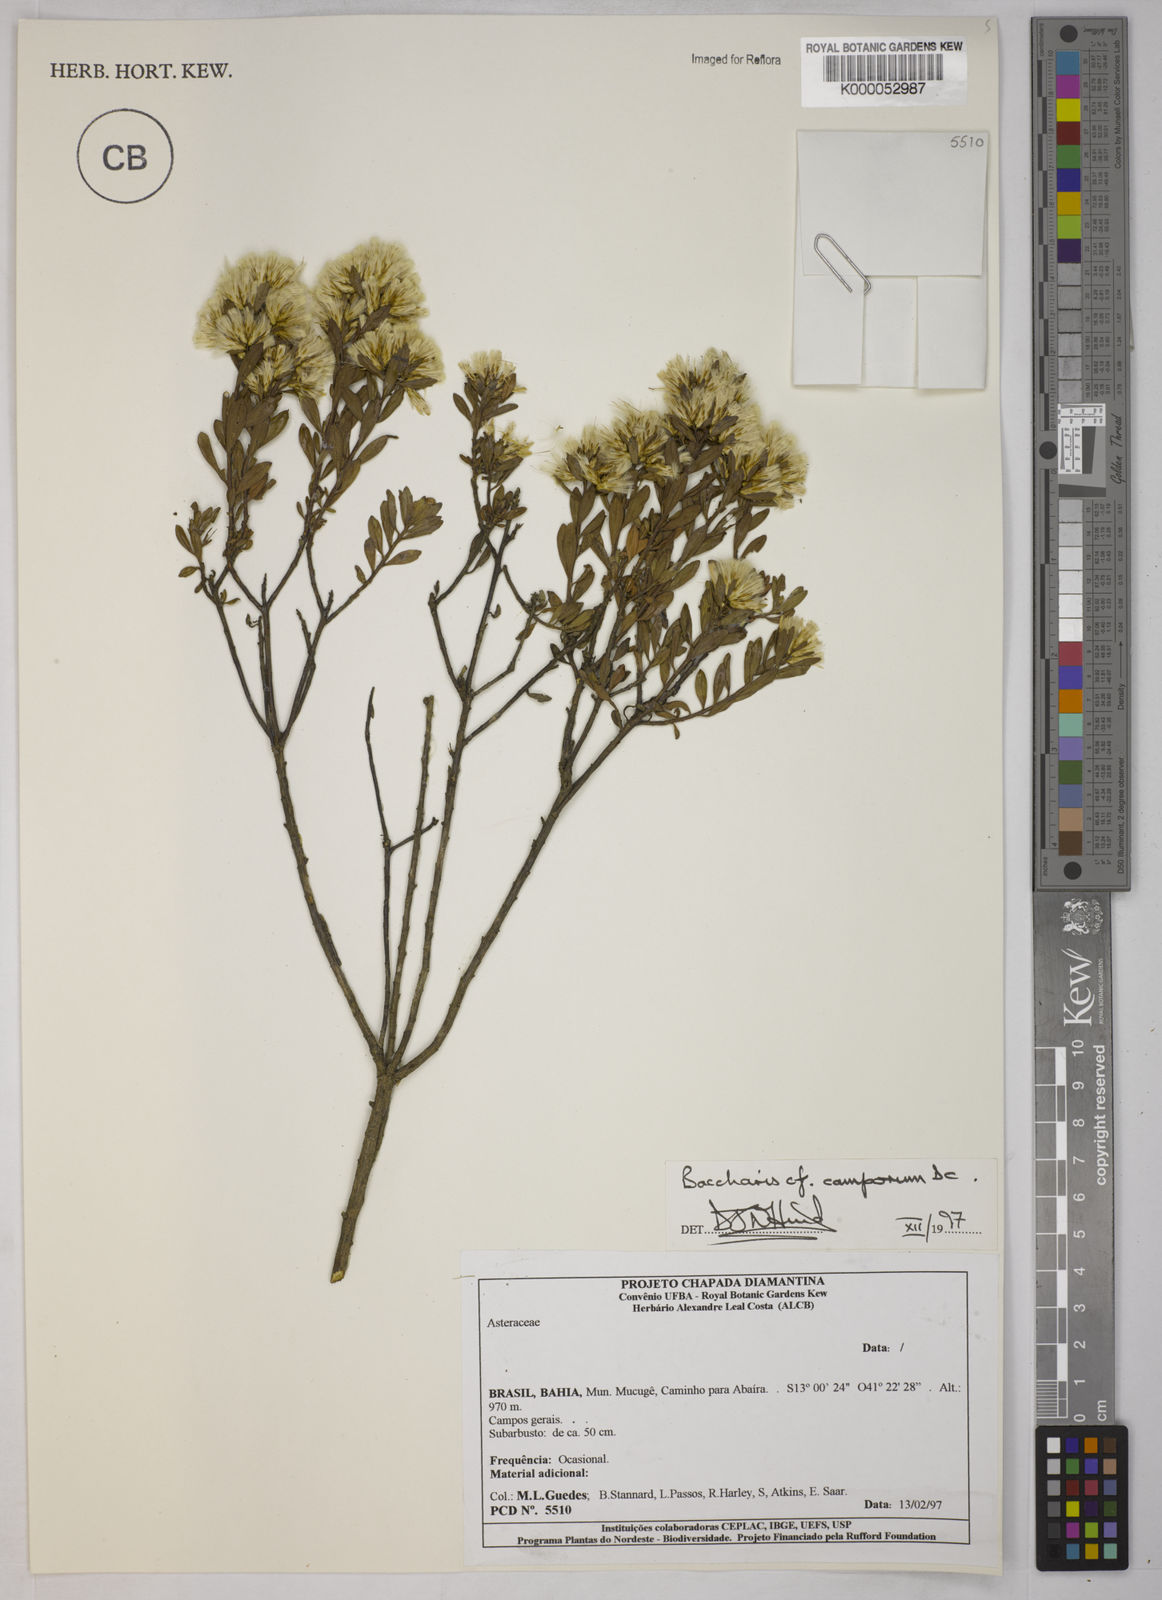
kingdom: Plantae
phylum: Tracheophyta
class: Magnoliopsida
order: Asterales
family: Asteraceae
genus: Baccharis
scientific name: Baccharis camporum
